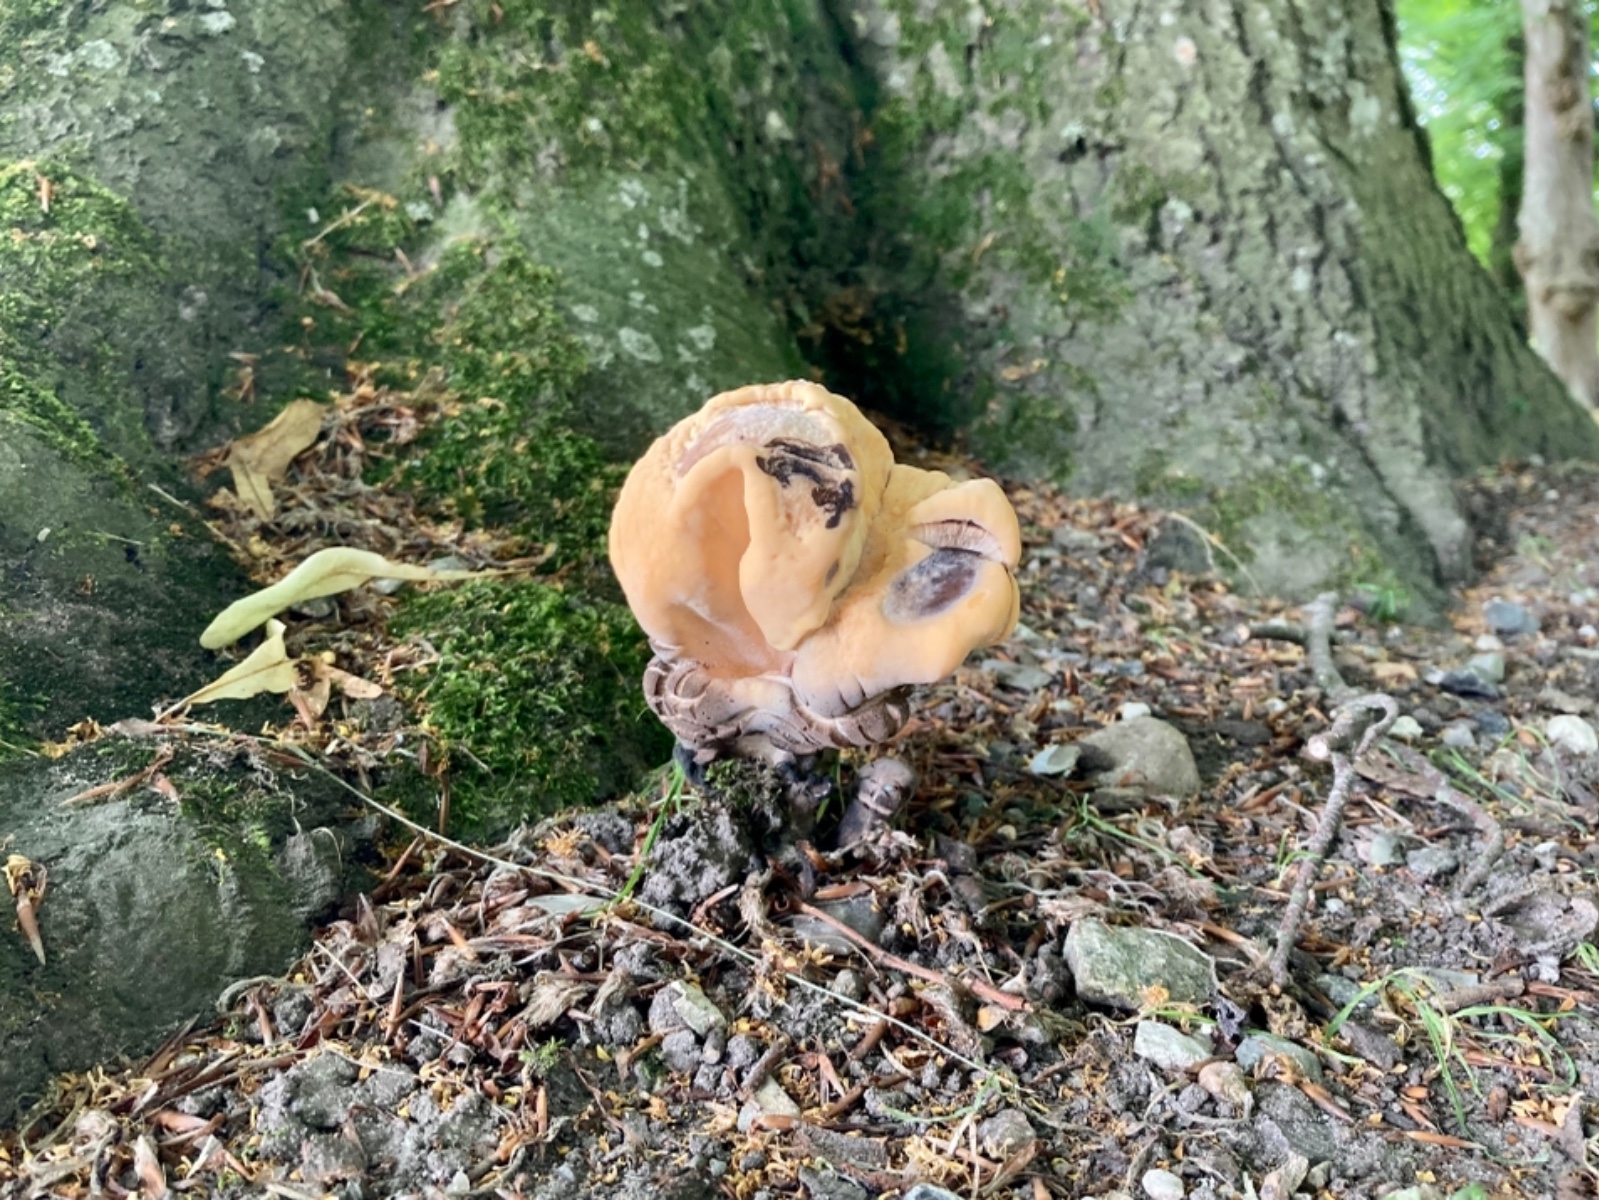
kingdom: Fungi
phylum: Basidiomycota
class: Agaricomycetes
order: Polyporales
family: Meripilaceae
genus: Meripilus
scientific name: Meripilus giganteus
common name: kæmpeporesvamp
